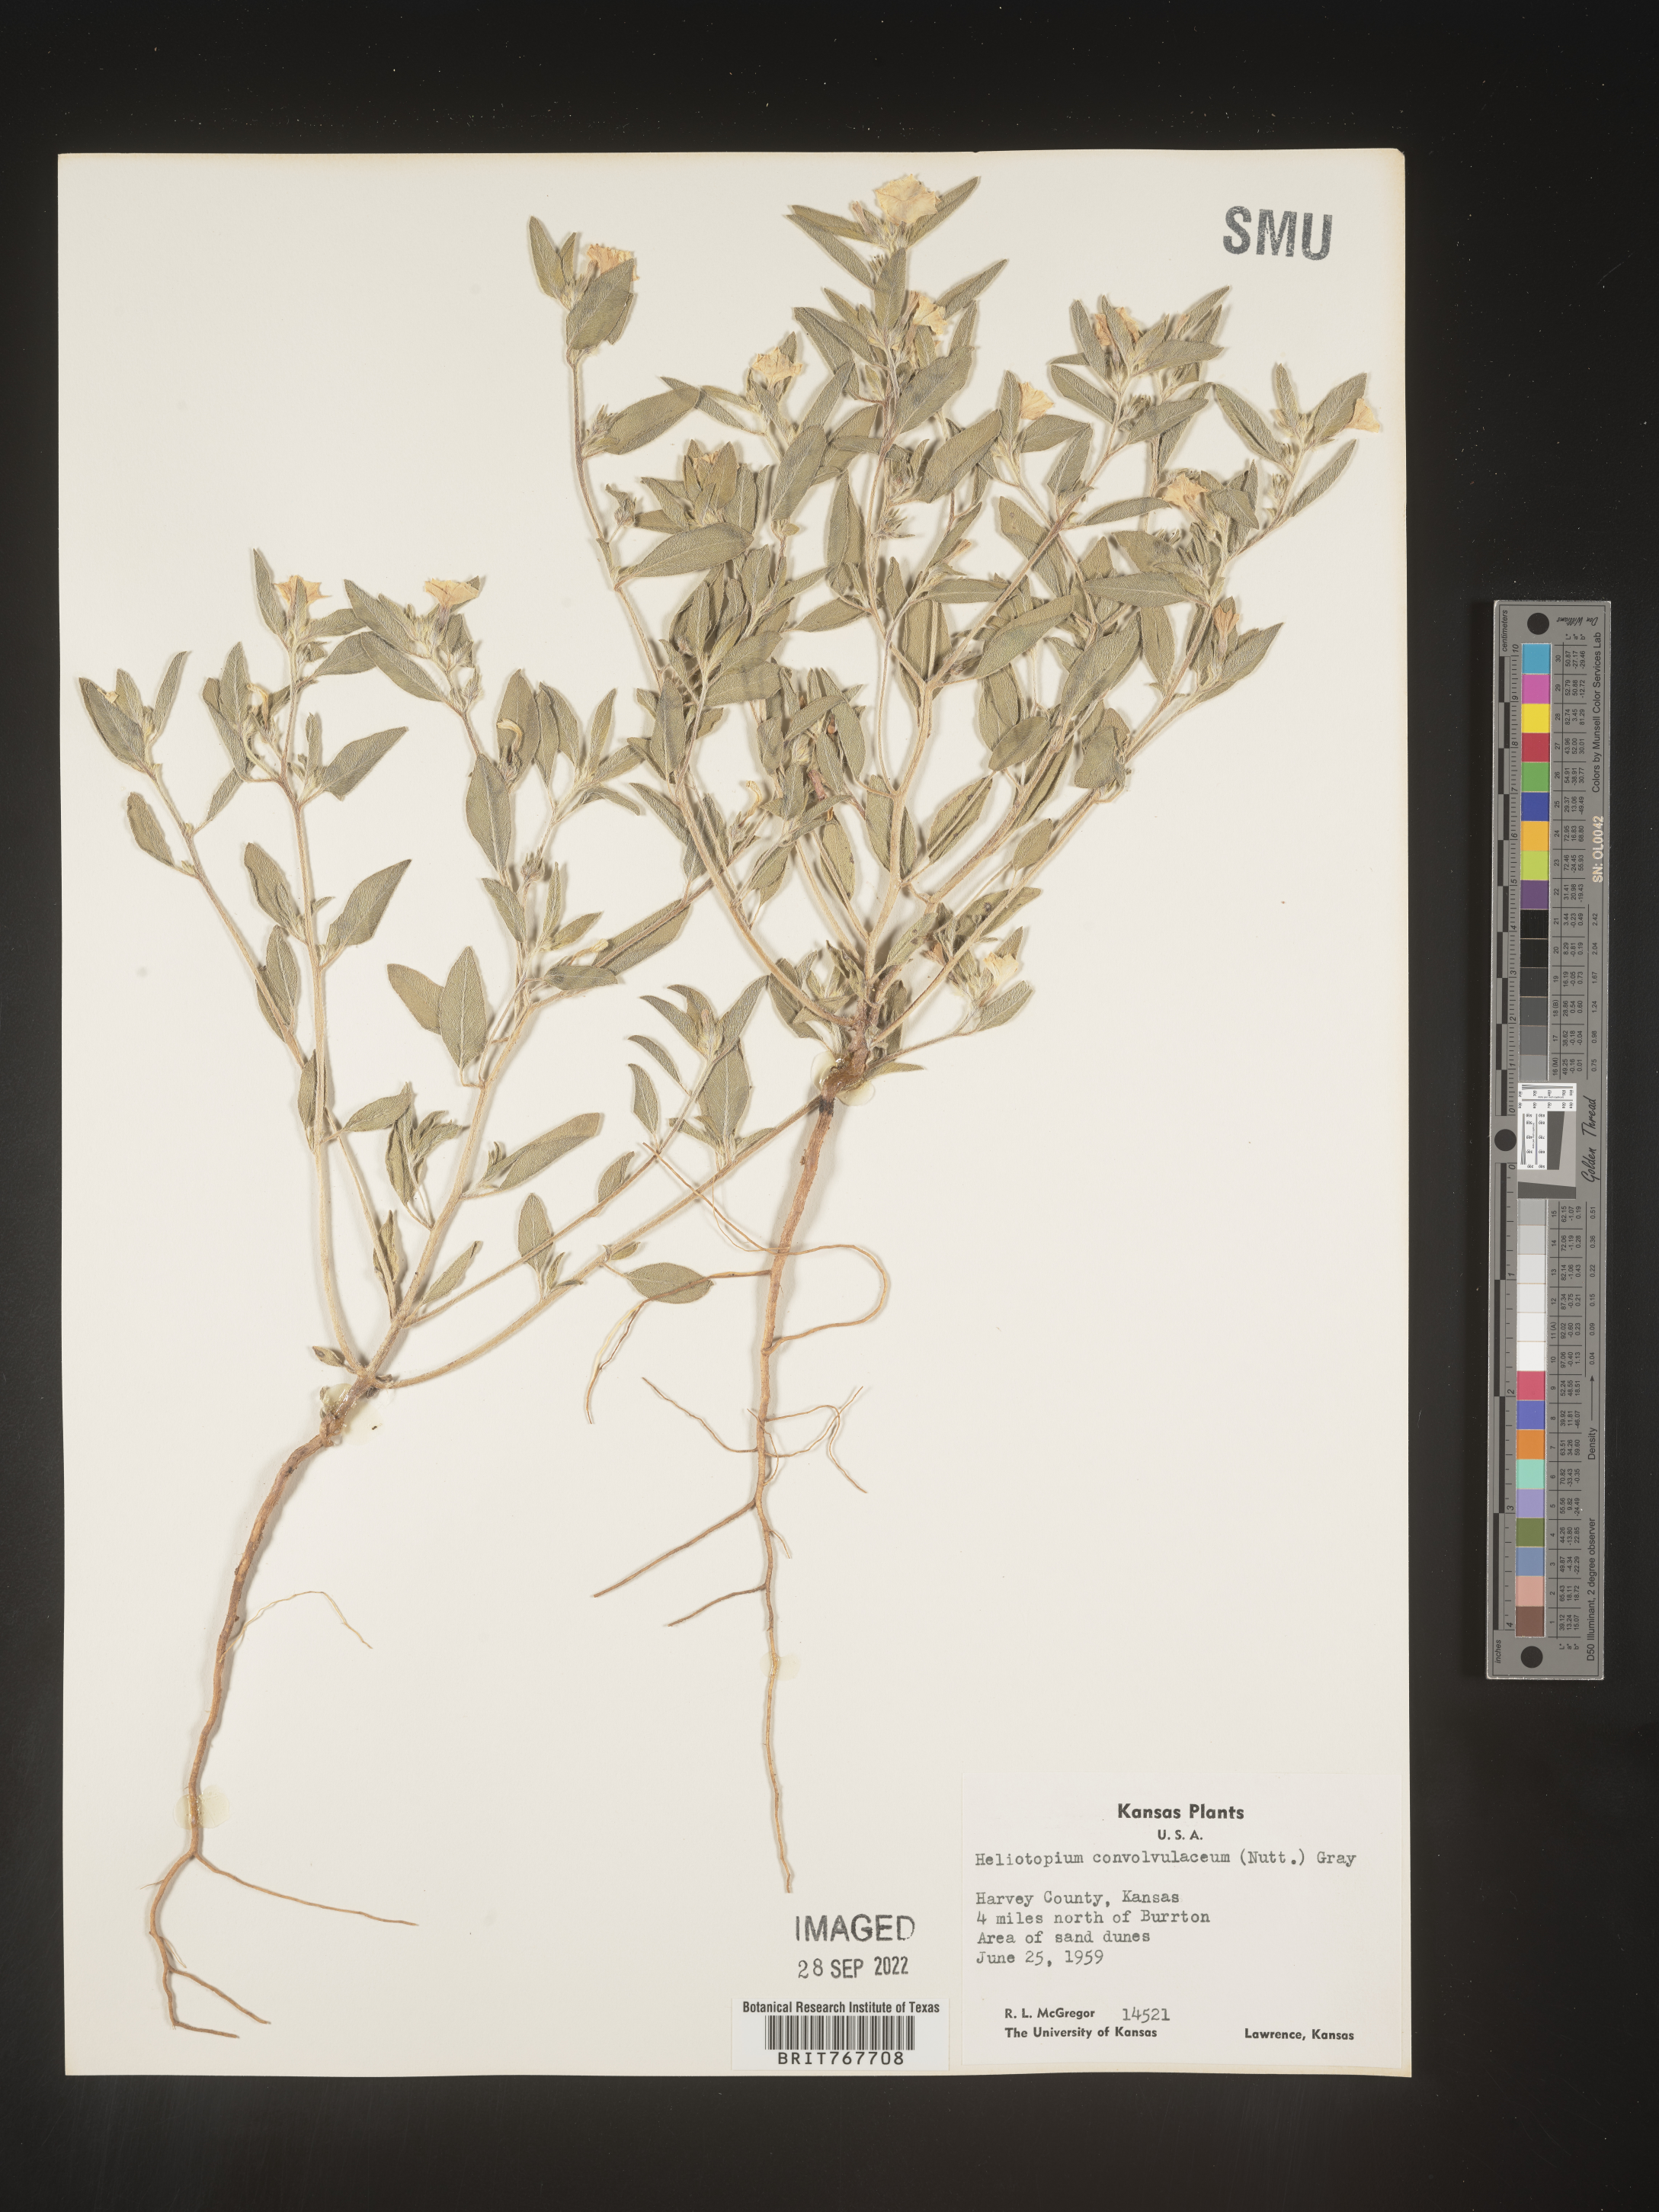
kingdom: Plantae
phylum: Tracheophyta
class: Magnoliopsida
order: Boraginales
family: Heliotropiaceae
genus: Heliotropium
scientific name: Heliotropium
